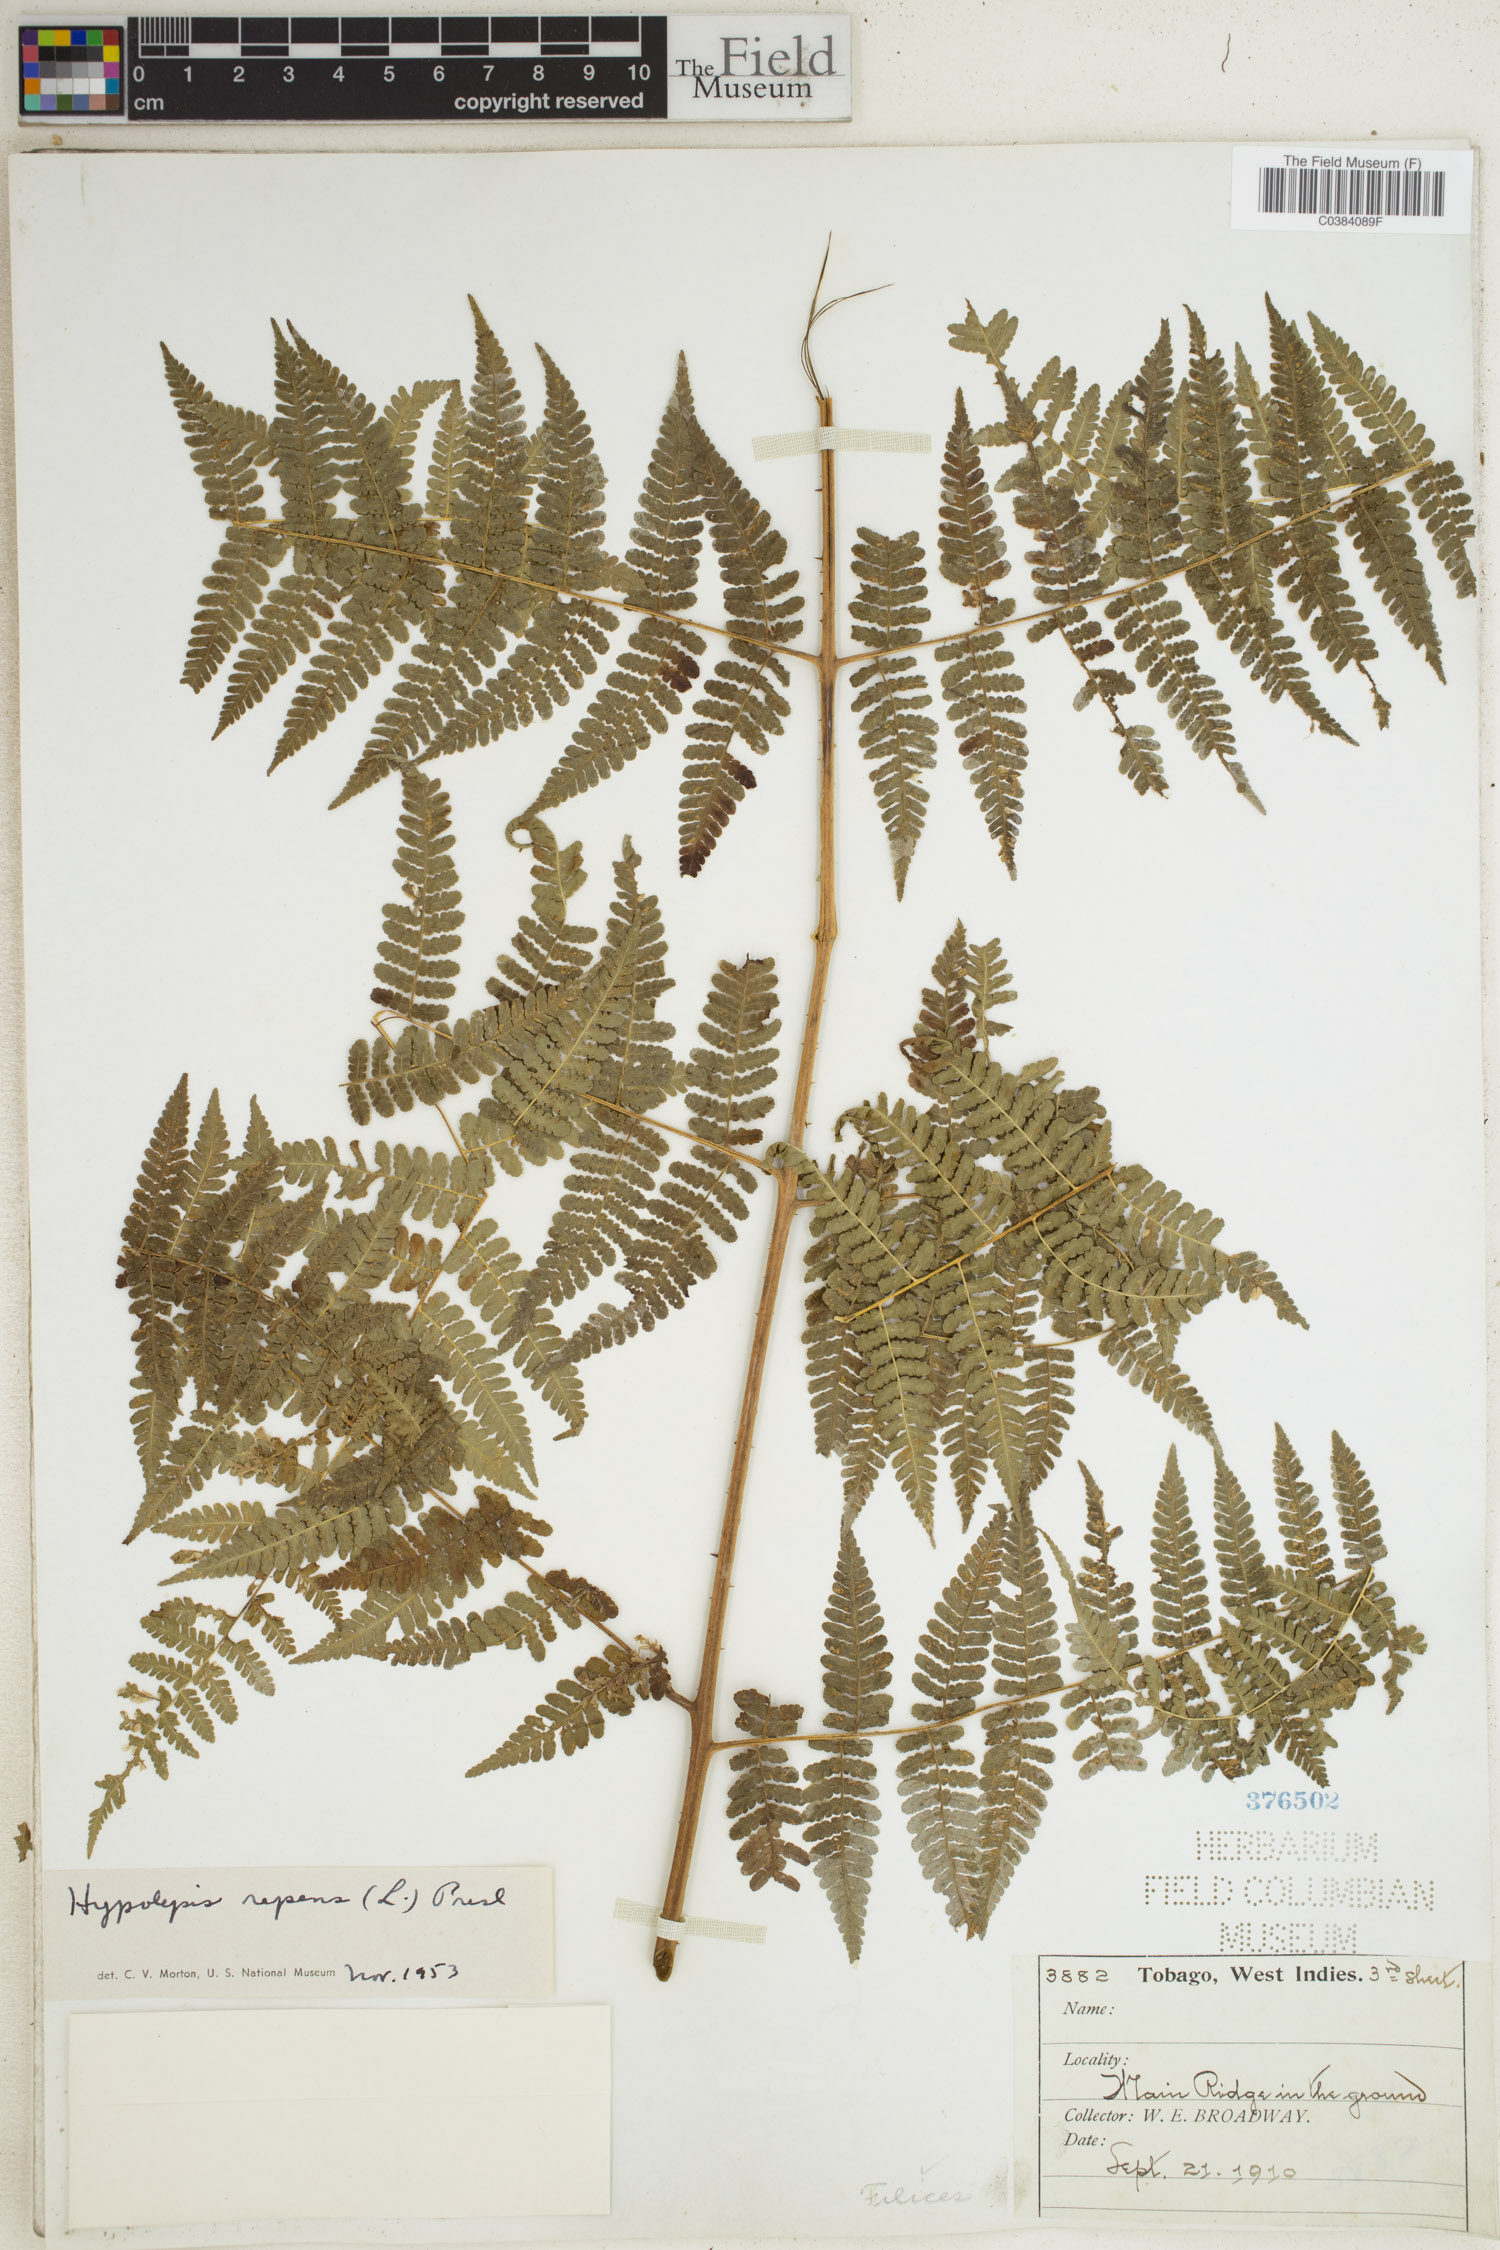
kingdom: Plantae
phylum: Tracheophyta
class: Polypodiopsida
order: Polypodiales
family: Dennstaedtiaceae
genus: Hypolepis
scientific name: Hypolepis repens
